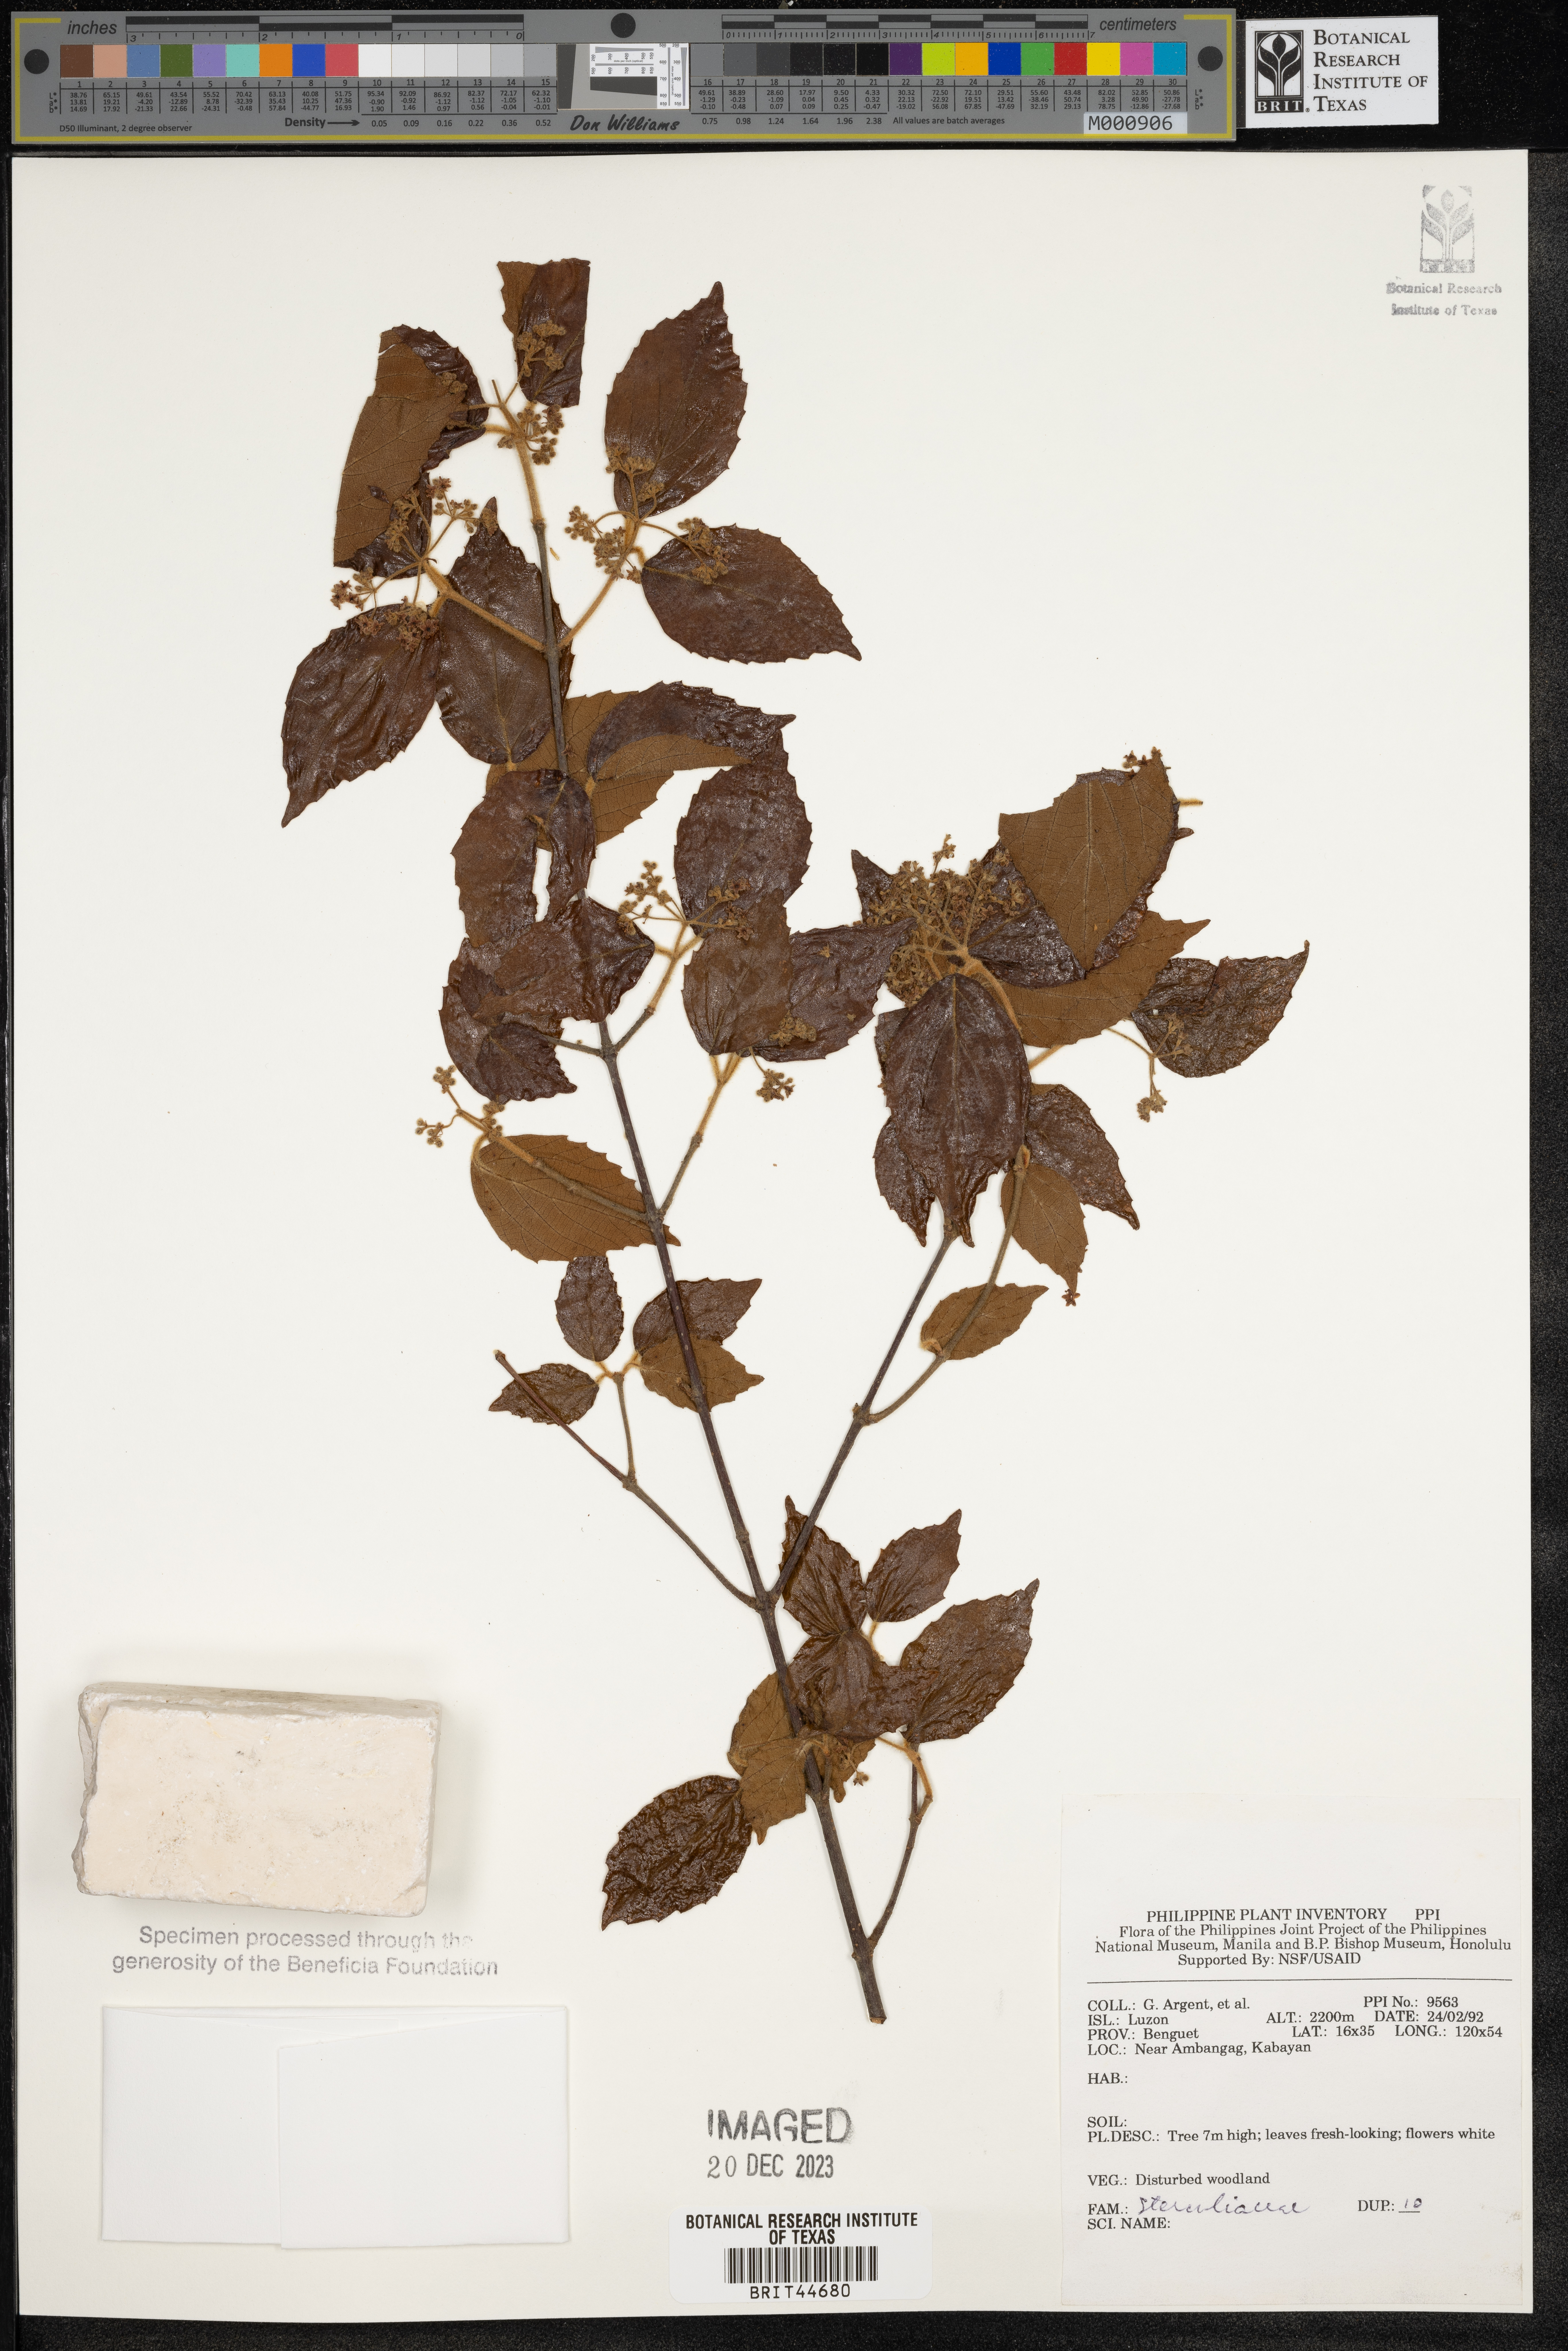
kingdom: Plantae
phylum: Tracheophyta
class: Magnoliopsida
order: Malvales
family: Sterculiaceae
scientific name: Sterculiaceae
